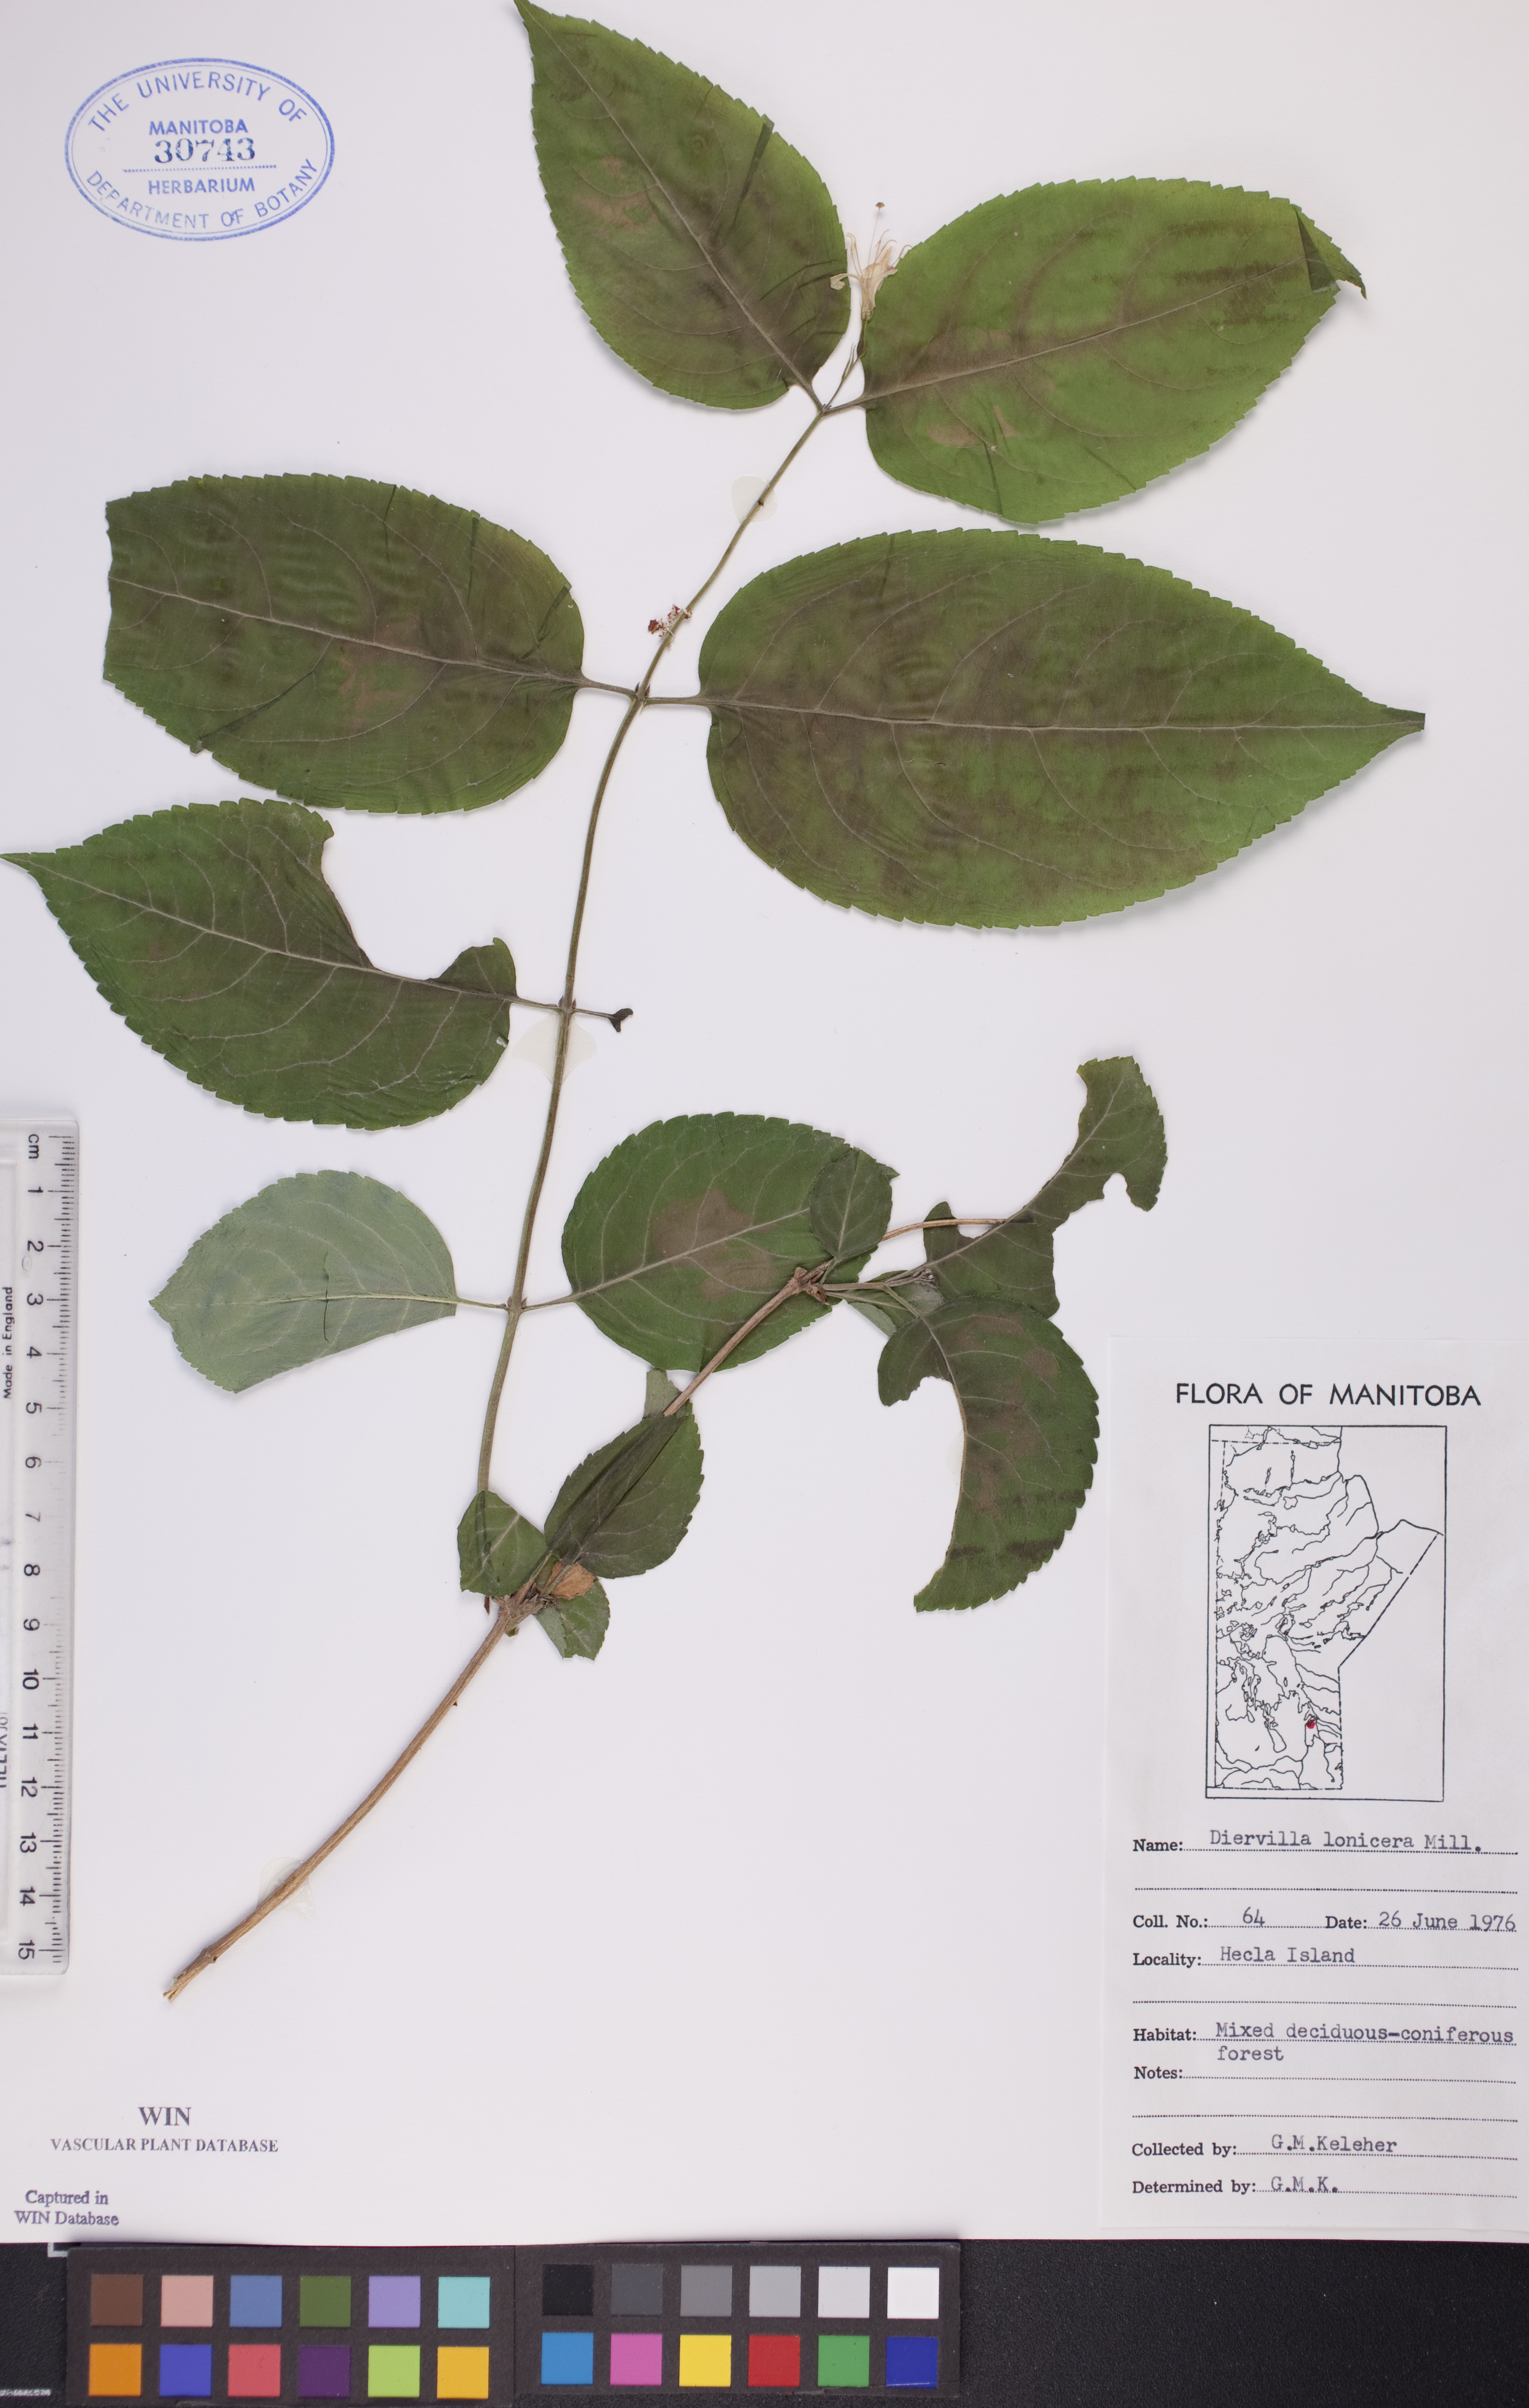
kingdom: Plantae
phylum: Tracheophyta
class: Magnoliopsida
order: Dipsacales
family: Caprifoliaceae
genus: Diervilla
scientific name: Diervilla lonicera
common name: Bush-honeysuckle
